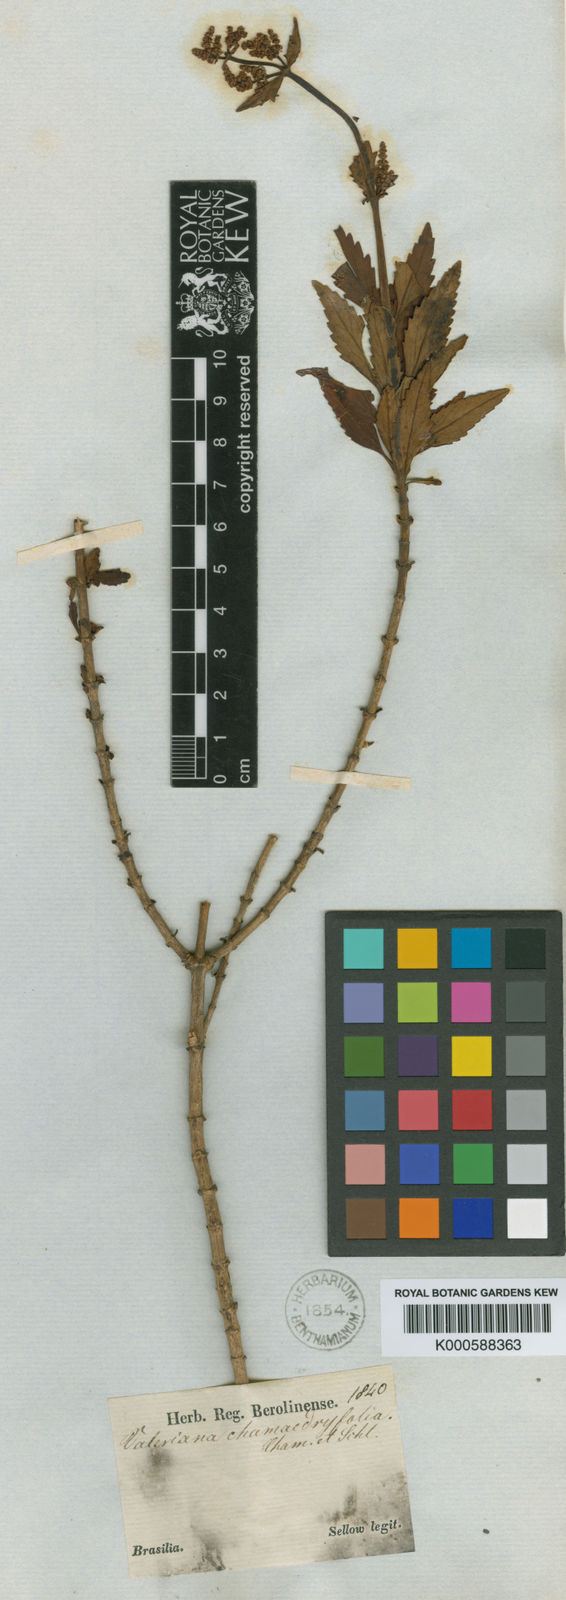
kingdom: Plantae
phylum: Tracheophyta
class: Magnoliopsida
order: Dipsacales
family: Caprifoliaceae
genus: Valeriana
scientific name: Valeriana chamaedryfolia
